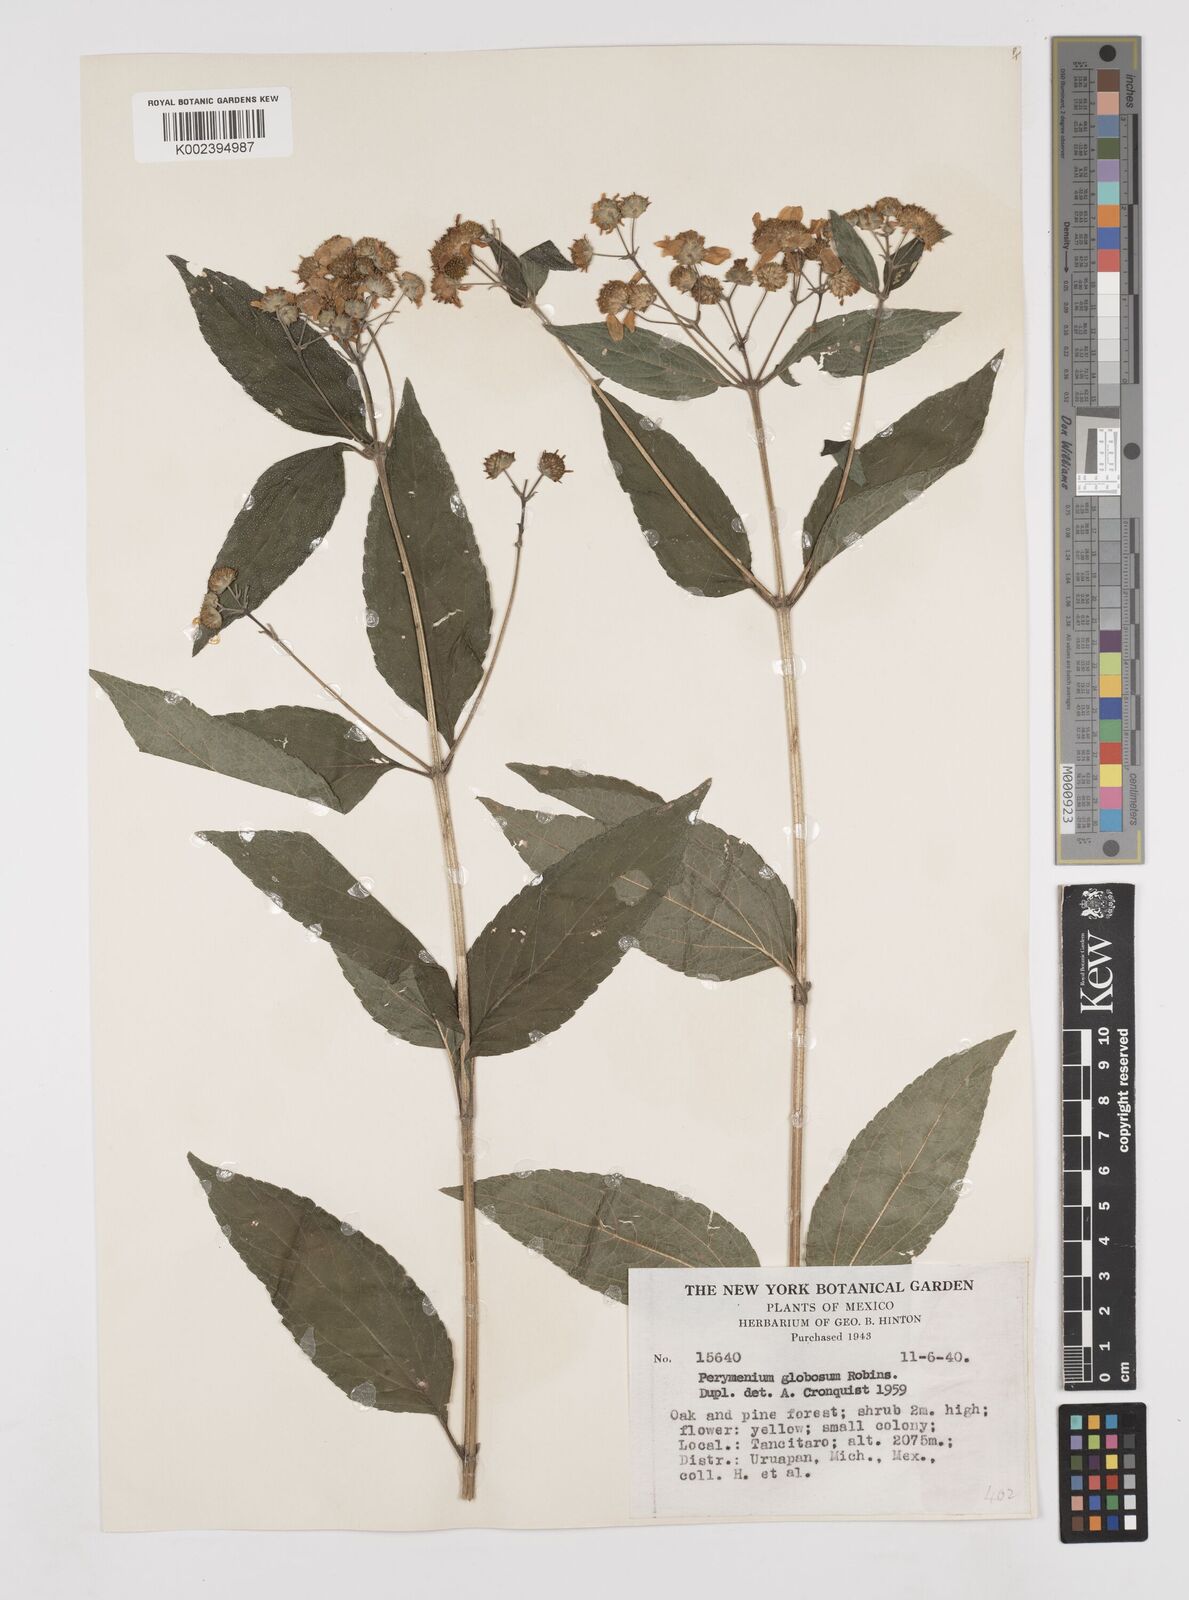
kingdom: Plantae
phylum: Tracheophyta
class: Magnoliopsida
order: Asterales
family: Asteraceae
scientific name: Asteraceae
